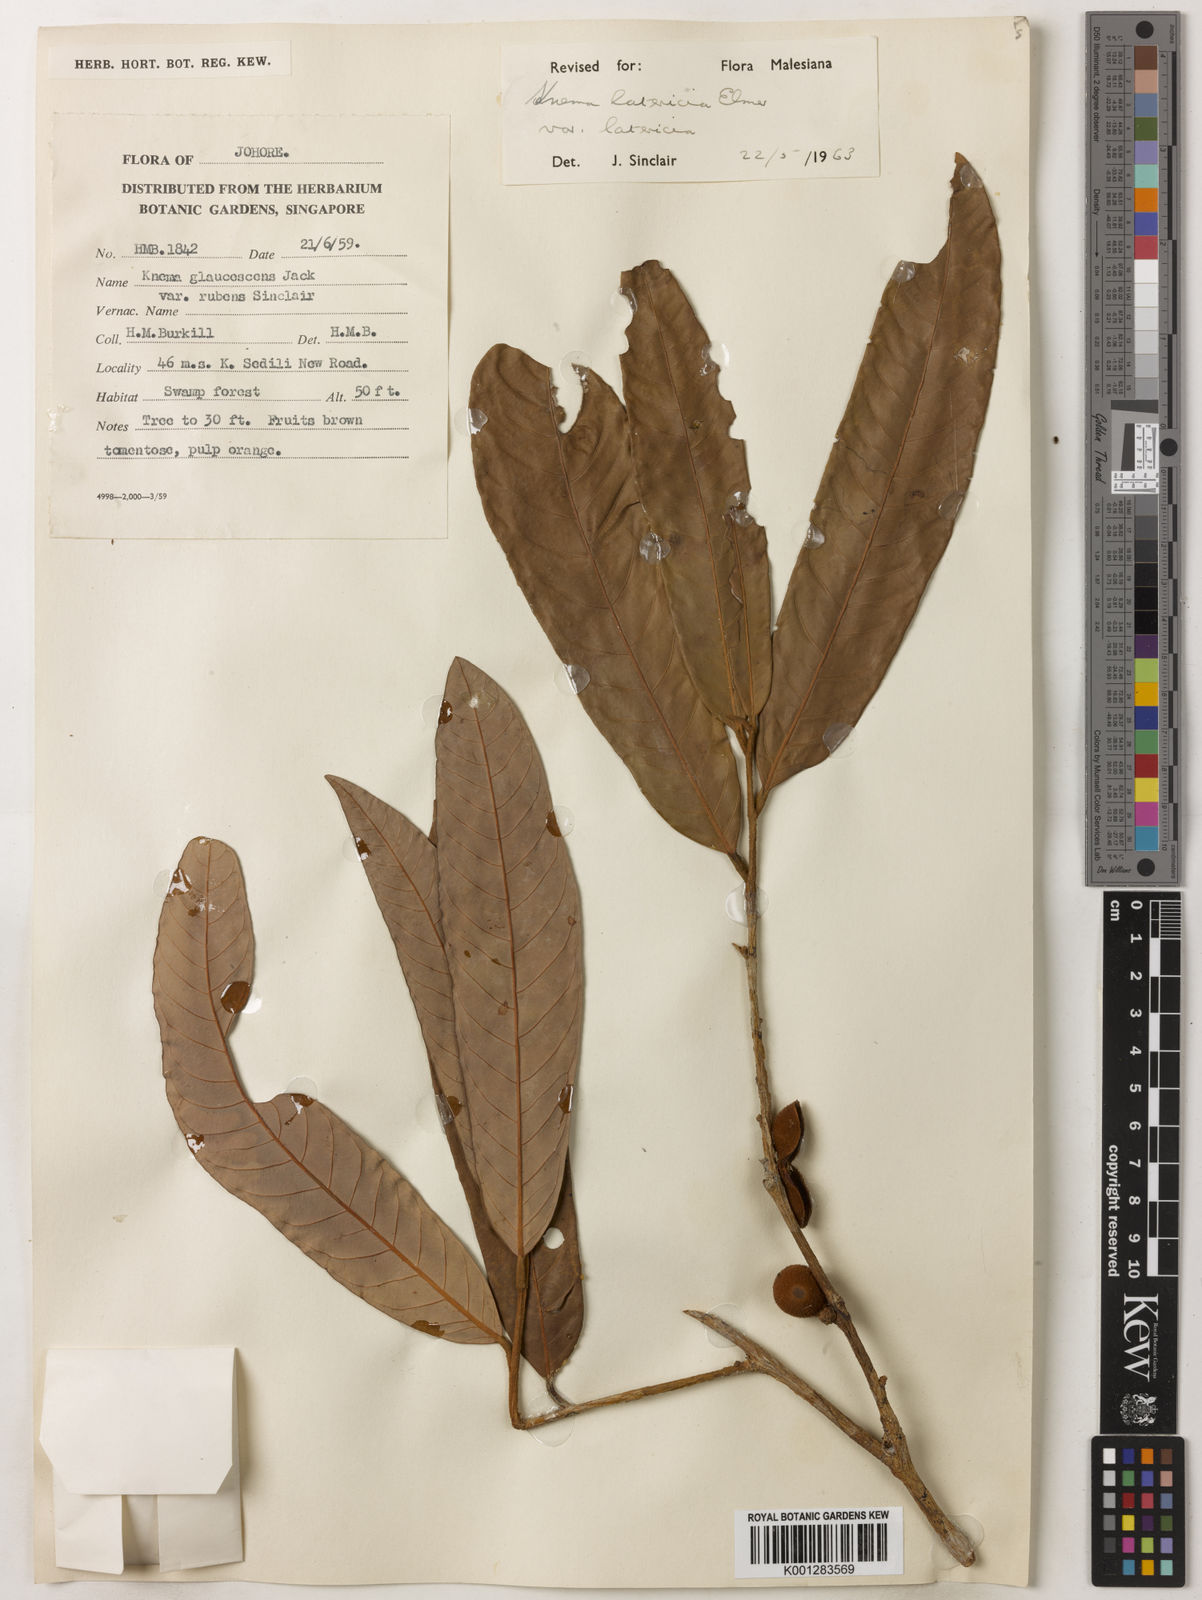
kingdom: Plantae
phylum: Tracheophyta
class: Magnoliopsida
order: Magnoliales
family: Myristicaceae
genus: Knema
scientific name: Knema latericia
